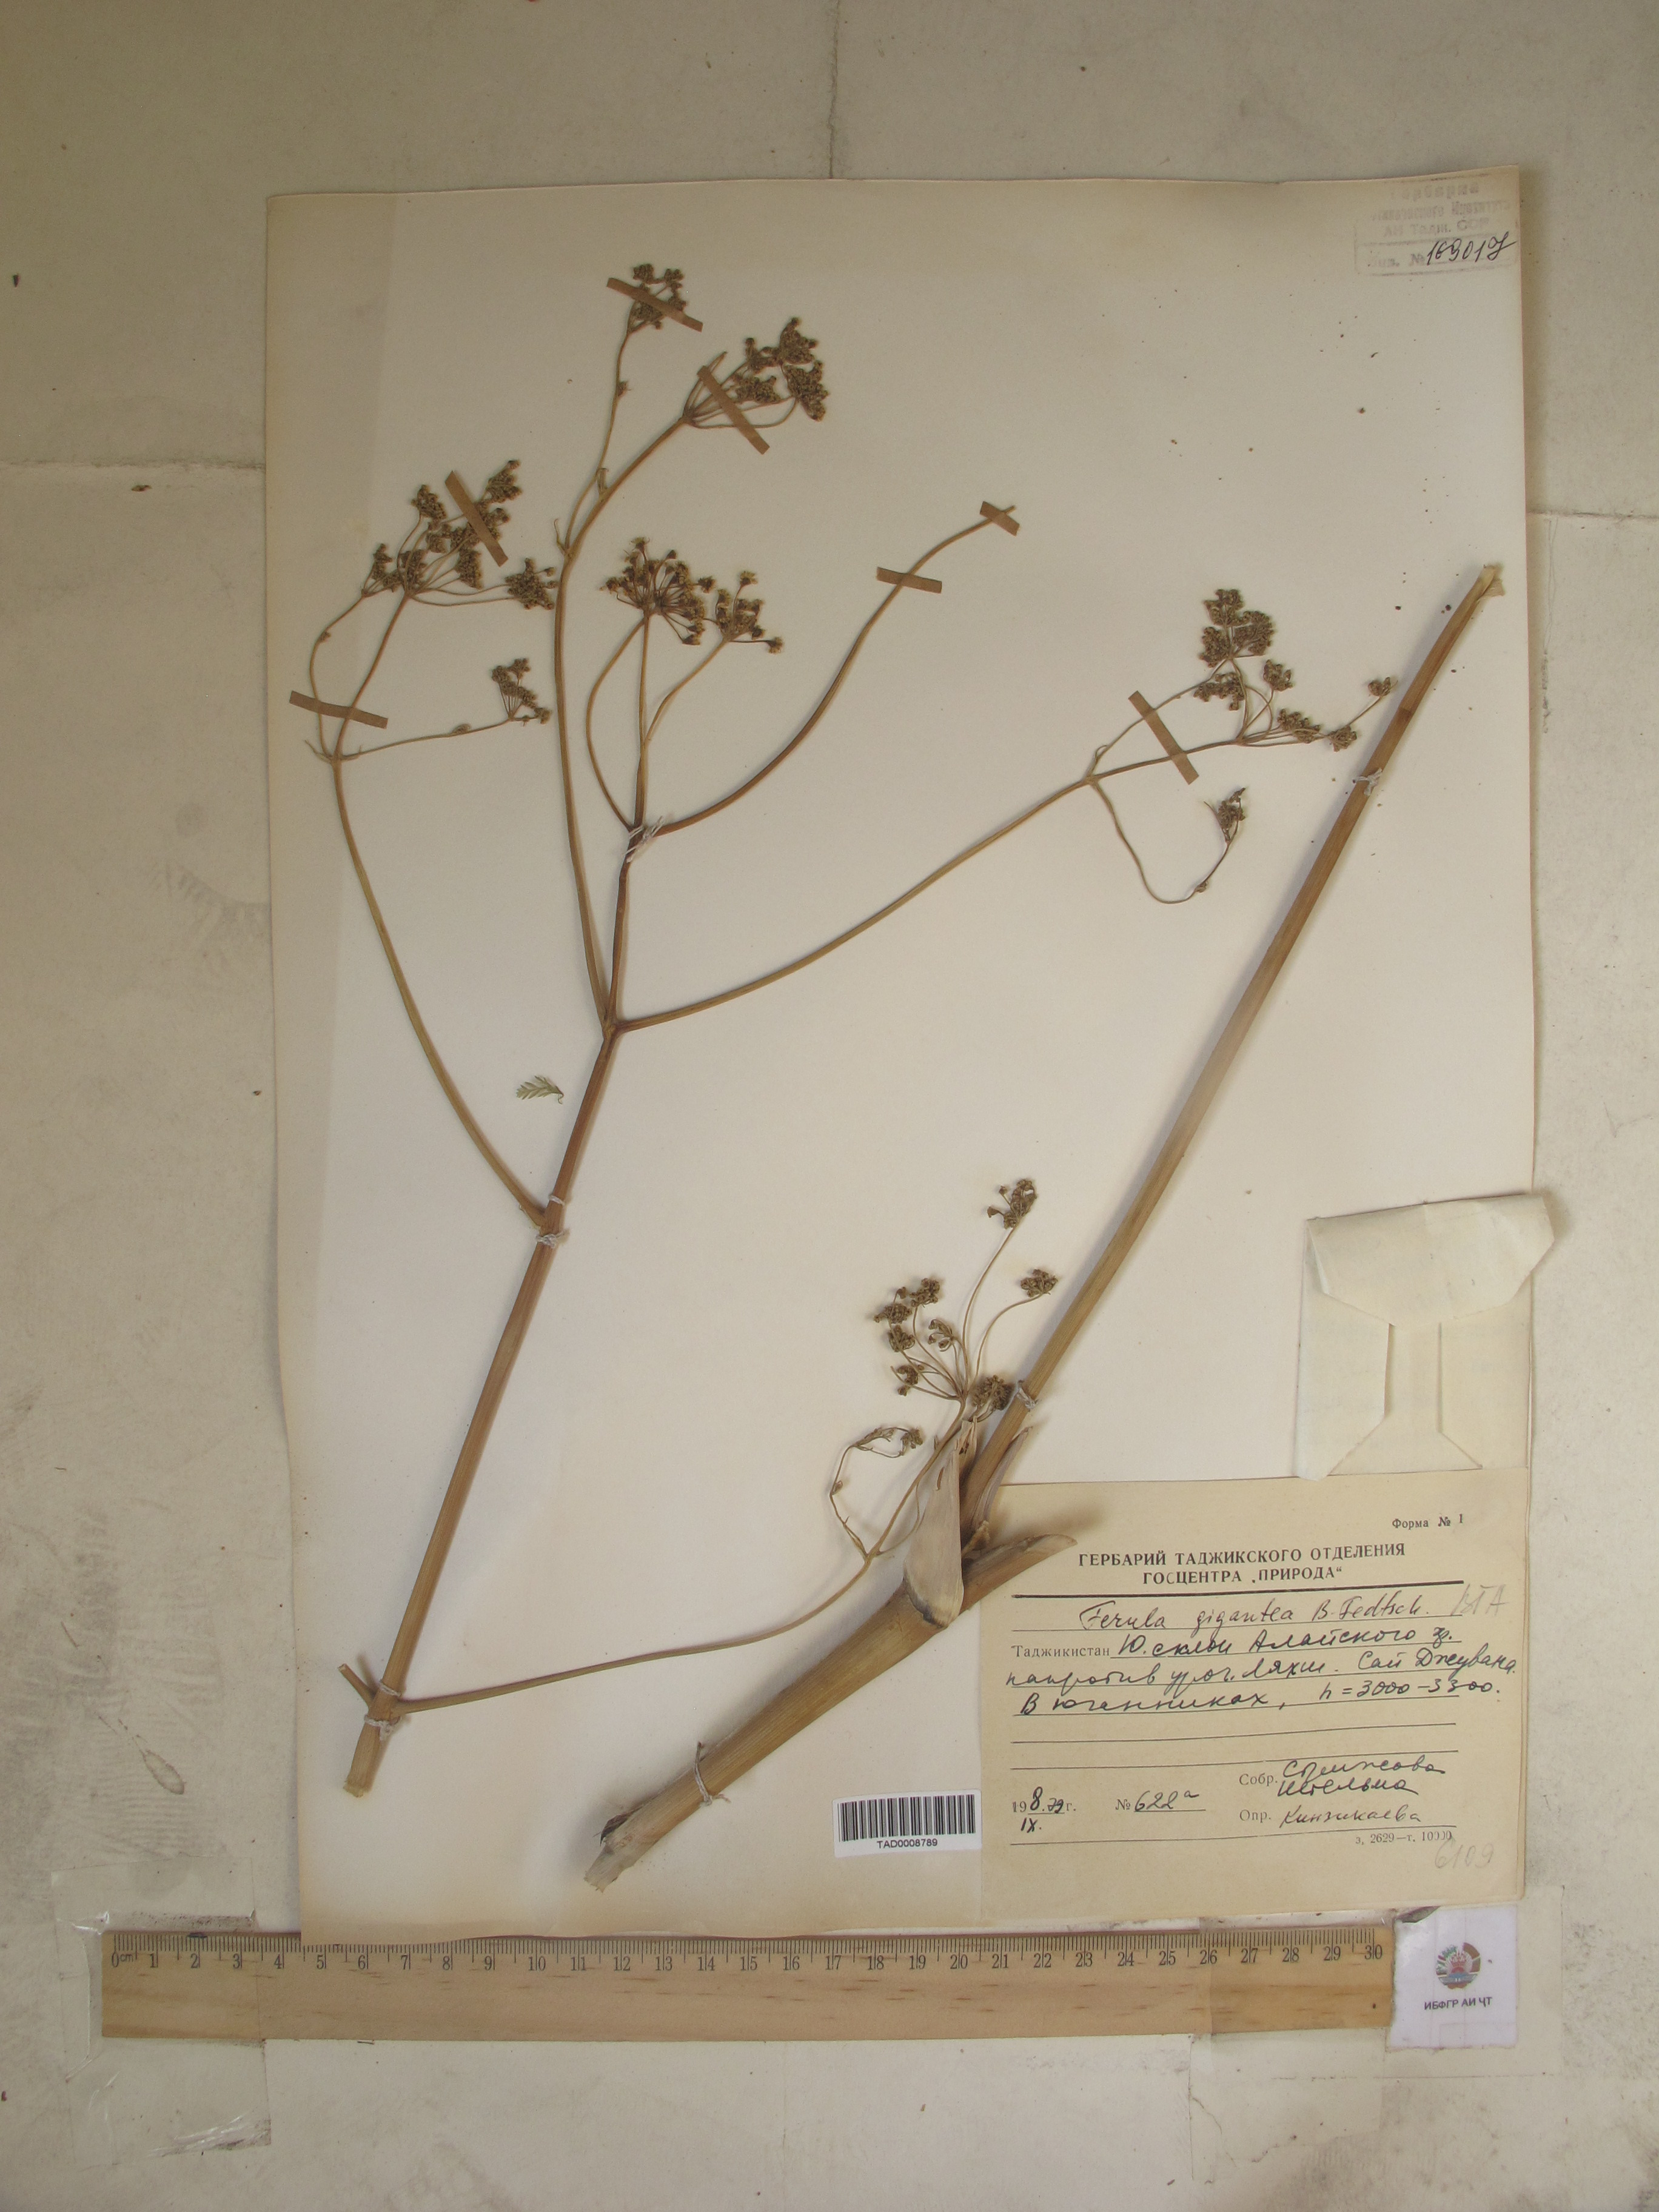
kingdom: Plantae
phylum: Tracheophyta
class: Magnoliopsida
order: Apiales
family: Apiaceae
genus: Ferula
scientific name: Ferula gigantea
